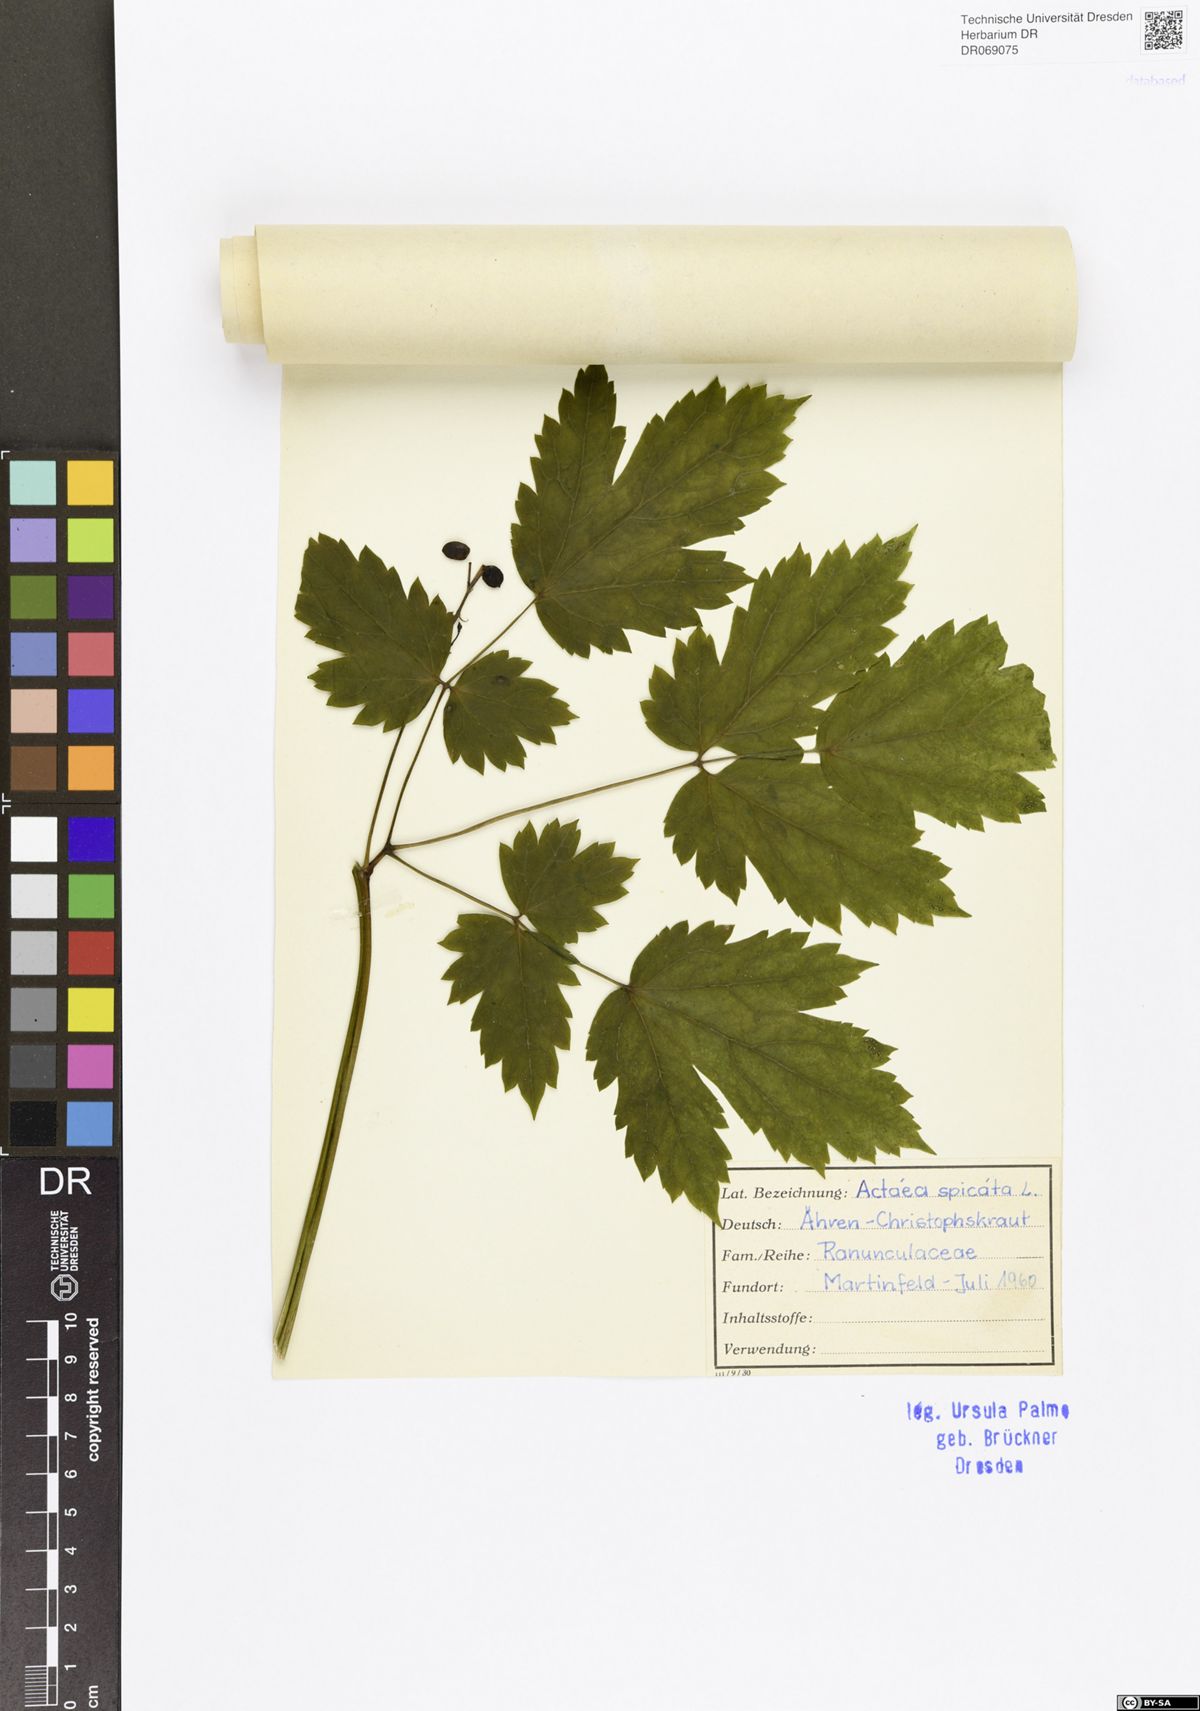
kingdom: Plantae
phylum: Tracheophyta
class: Magnoliopsida
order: Ranunculales
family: Ranunculaceae
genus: Actaea
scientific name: Actaea spicata
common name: Baneberry
